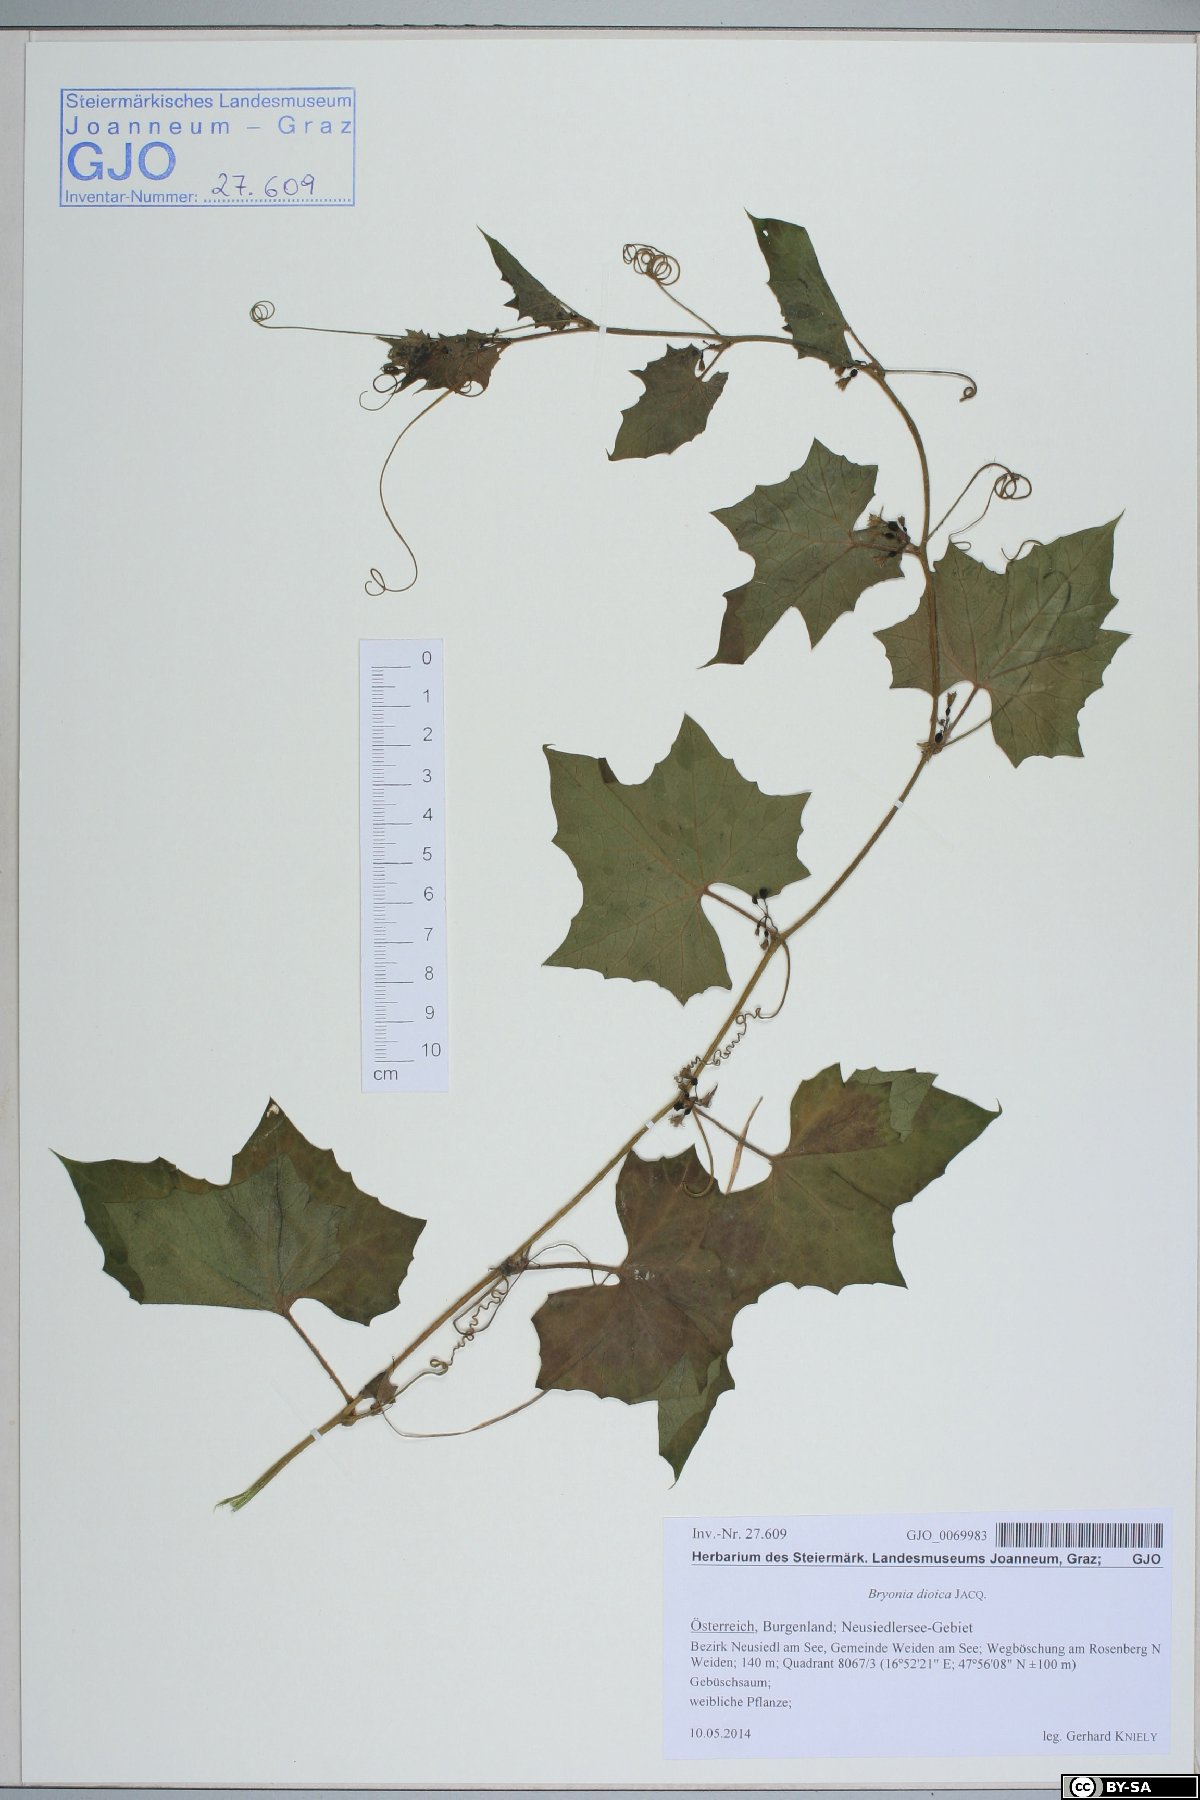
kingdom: Plantae
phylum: Tracheophyta
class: Magnoliopsida
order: Cucurbitales
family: Cucurbitaceae
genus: Bryonia
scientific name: Bryonia dioica
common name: White bryony
